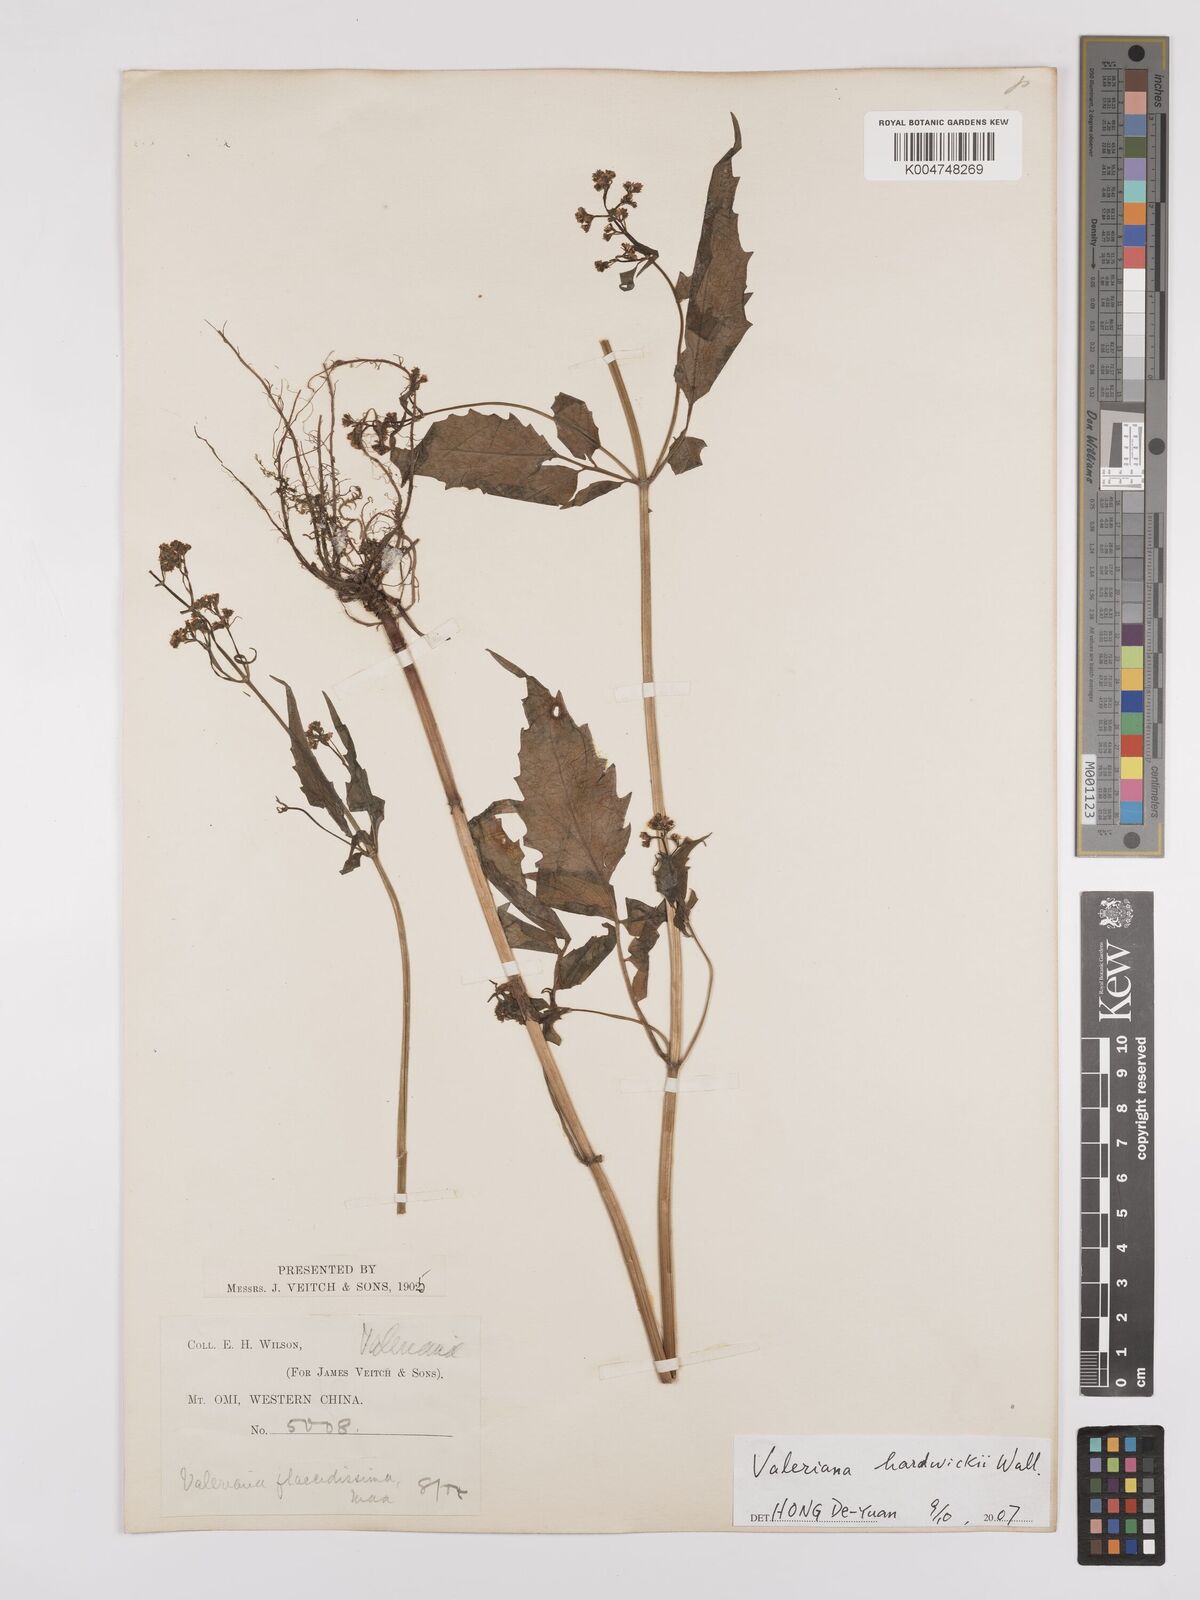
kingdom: Plantae
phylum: Tracheophyta
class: Magnoliopsida
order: Dipsacales
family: Caprifoliaceae
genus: Valeriana
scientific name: Valeriana hardwickei
